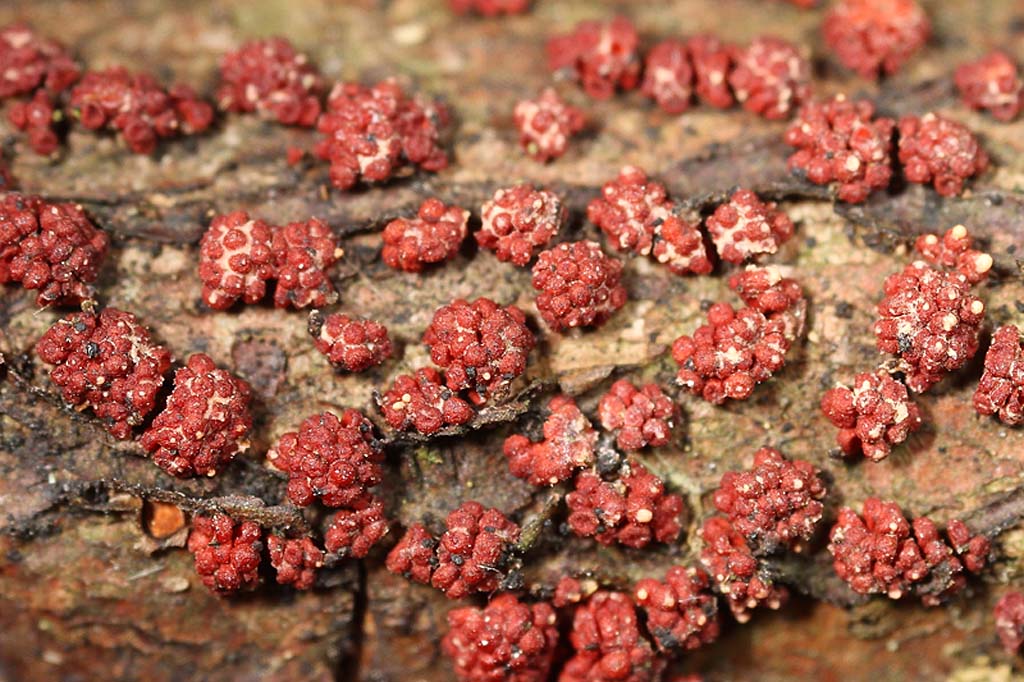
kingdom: Fungi
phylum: Ascomycota
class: Sordariomycetes
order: Hypocreales
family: Nectriaceae
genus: Nectria
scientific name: Nectria cinnabarina
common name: almindelig cinnobersvamp
